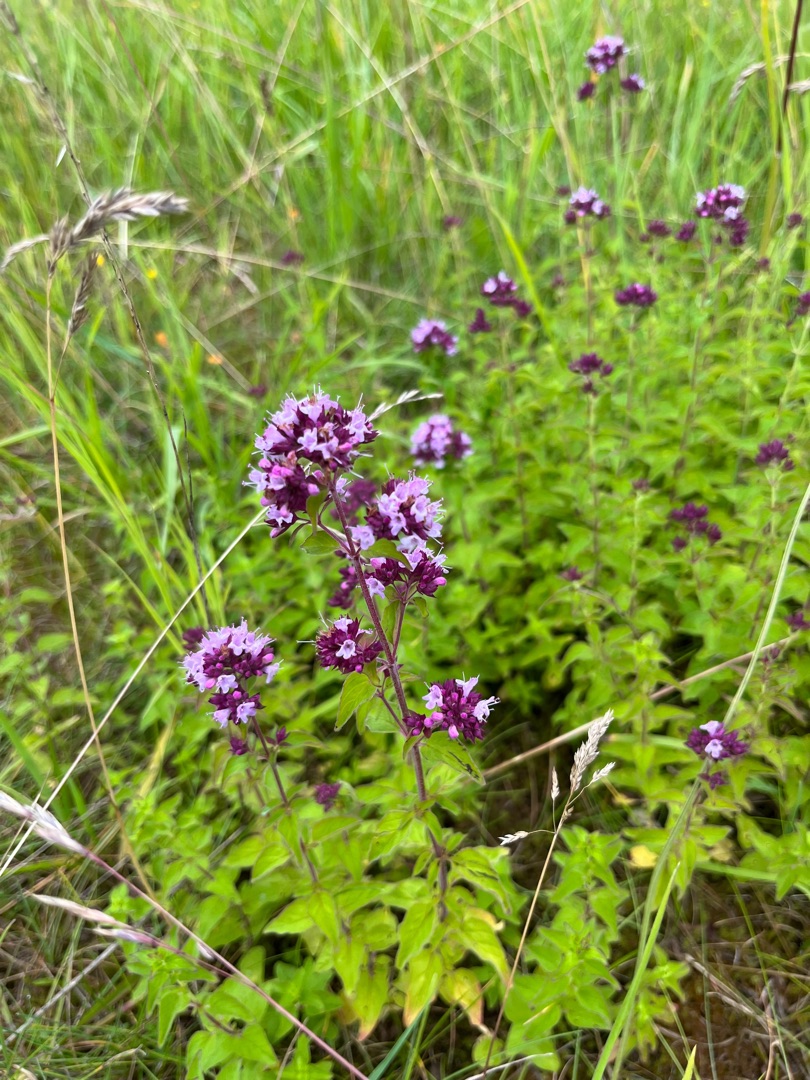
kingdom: Plantae
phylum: Tracheophyta
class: Magnoliopsida
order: Lamiales
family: Lamiaceae
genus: Origanum
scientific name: Origanum vulgare
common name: Merian
